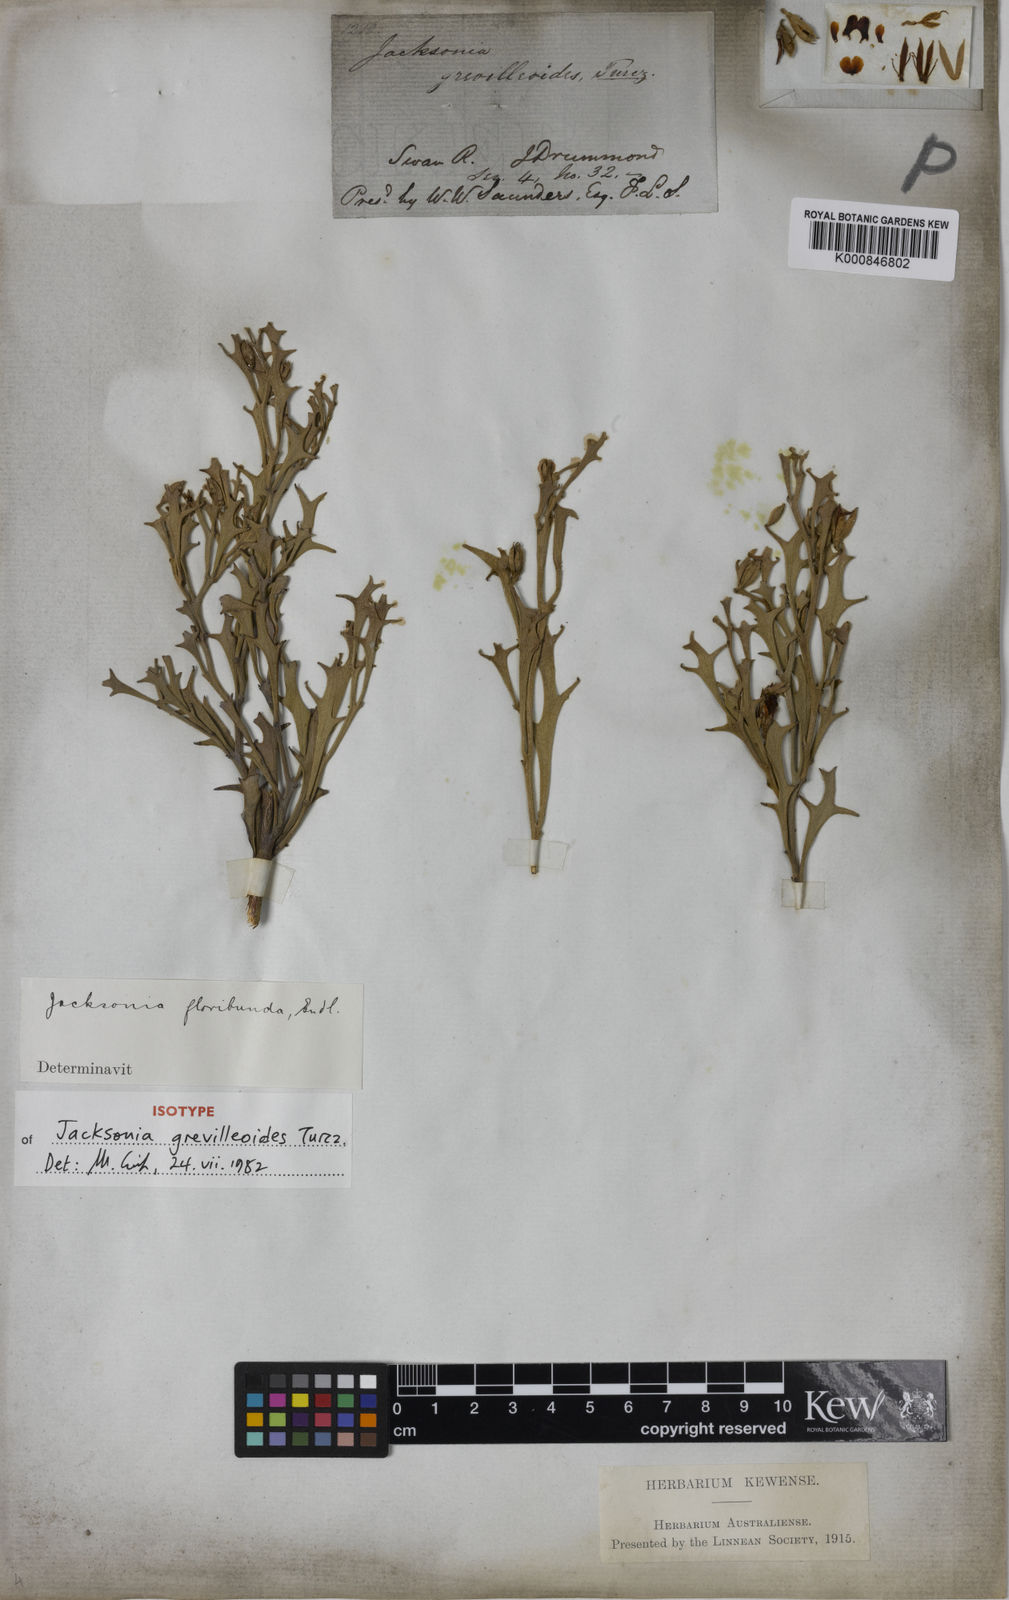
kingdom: Plantae
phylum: Tracheophyta
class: Magnoliopsida
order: Fabales
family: Fabaceae
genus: Jacksonia
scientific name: Jacksonia grevilleoides
